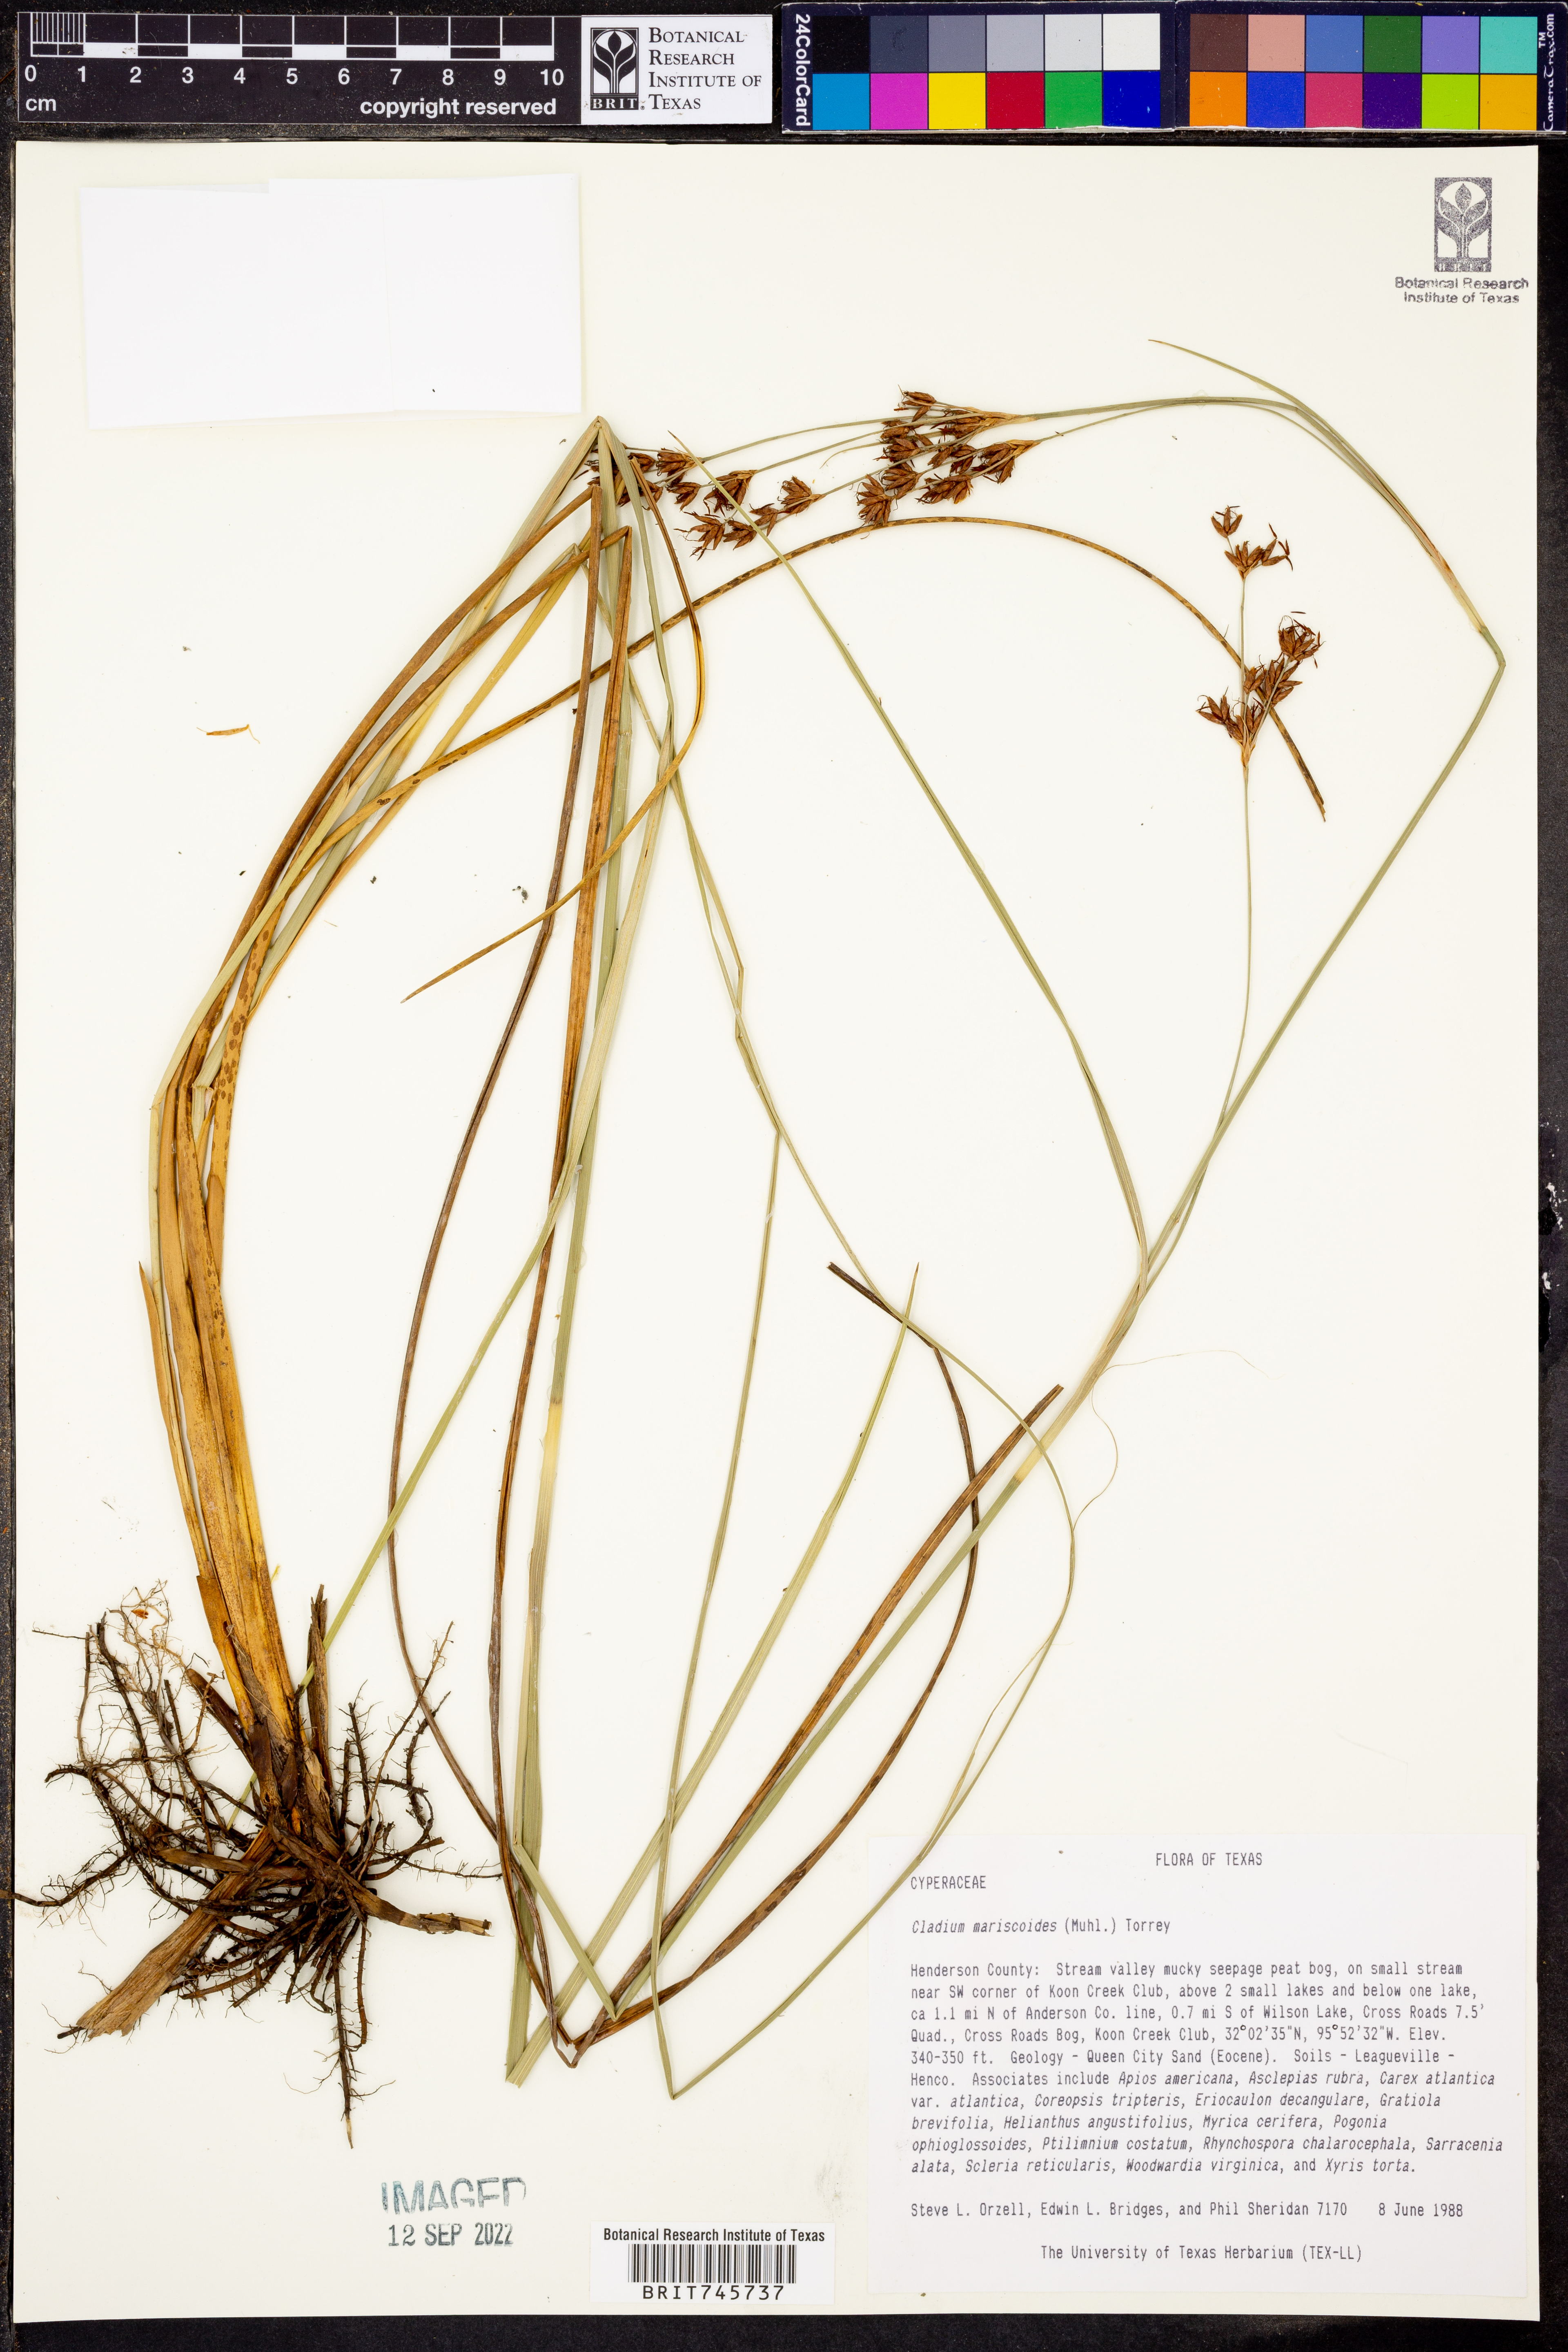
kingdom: Plantae
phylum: Tracheophyta
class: Liliopsida
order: Poales
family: Cyperaceae
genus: Cladium
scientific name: Cladium mariscoides
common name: Smooth sawgrass
